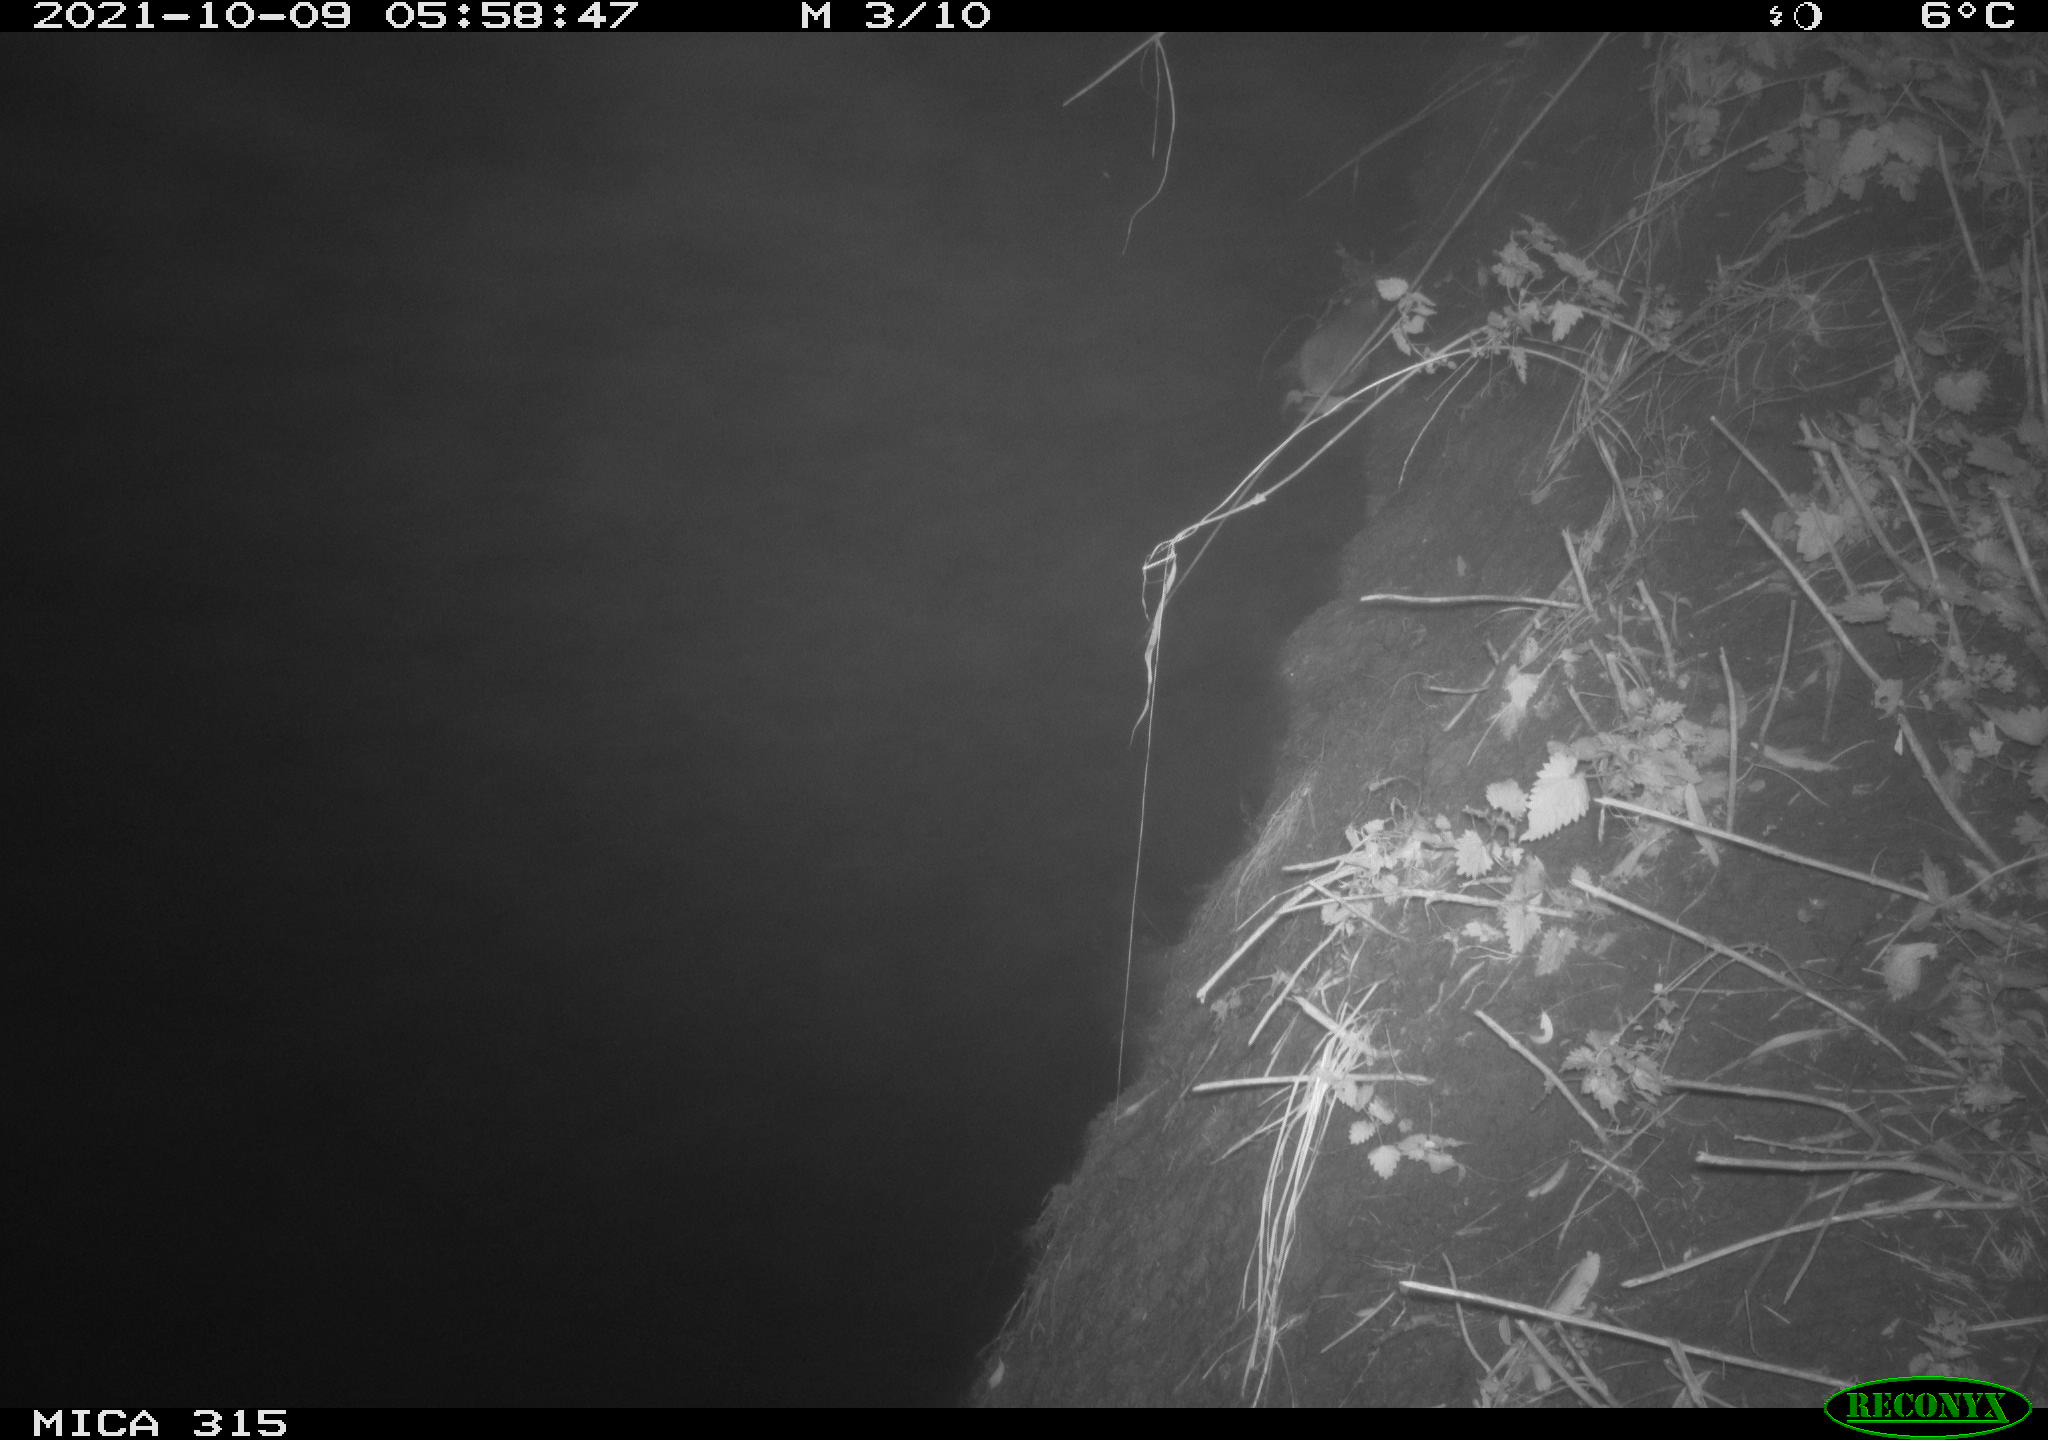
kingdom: Animalia
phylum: Chordata
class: Mammalia
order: Rodentia
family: Muridae
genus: Rattus
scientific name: Rattus norvegicus
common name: Brown rat
